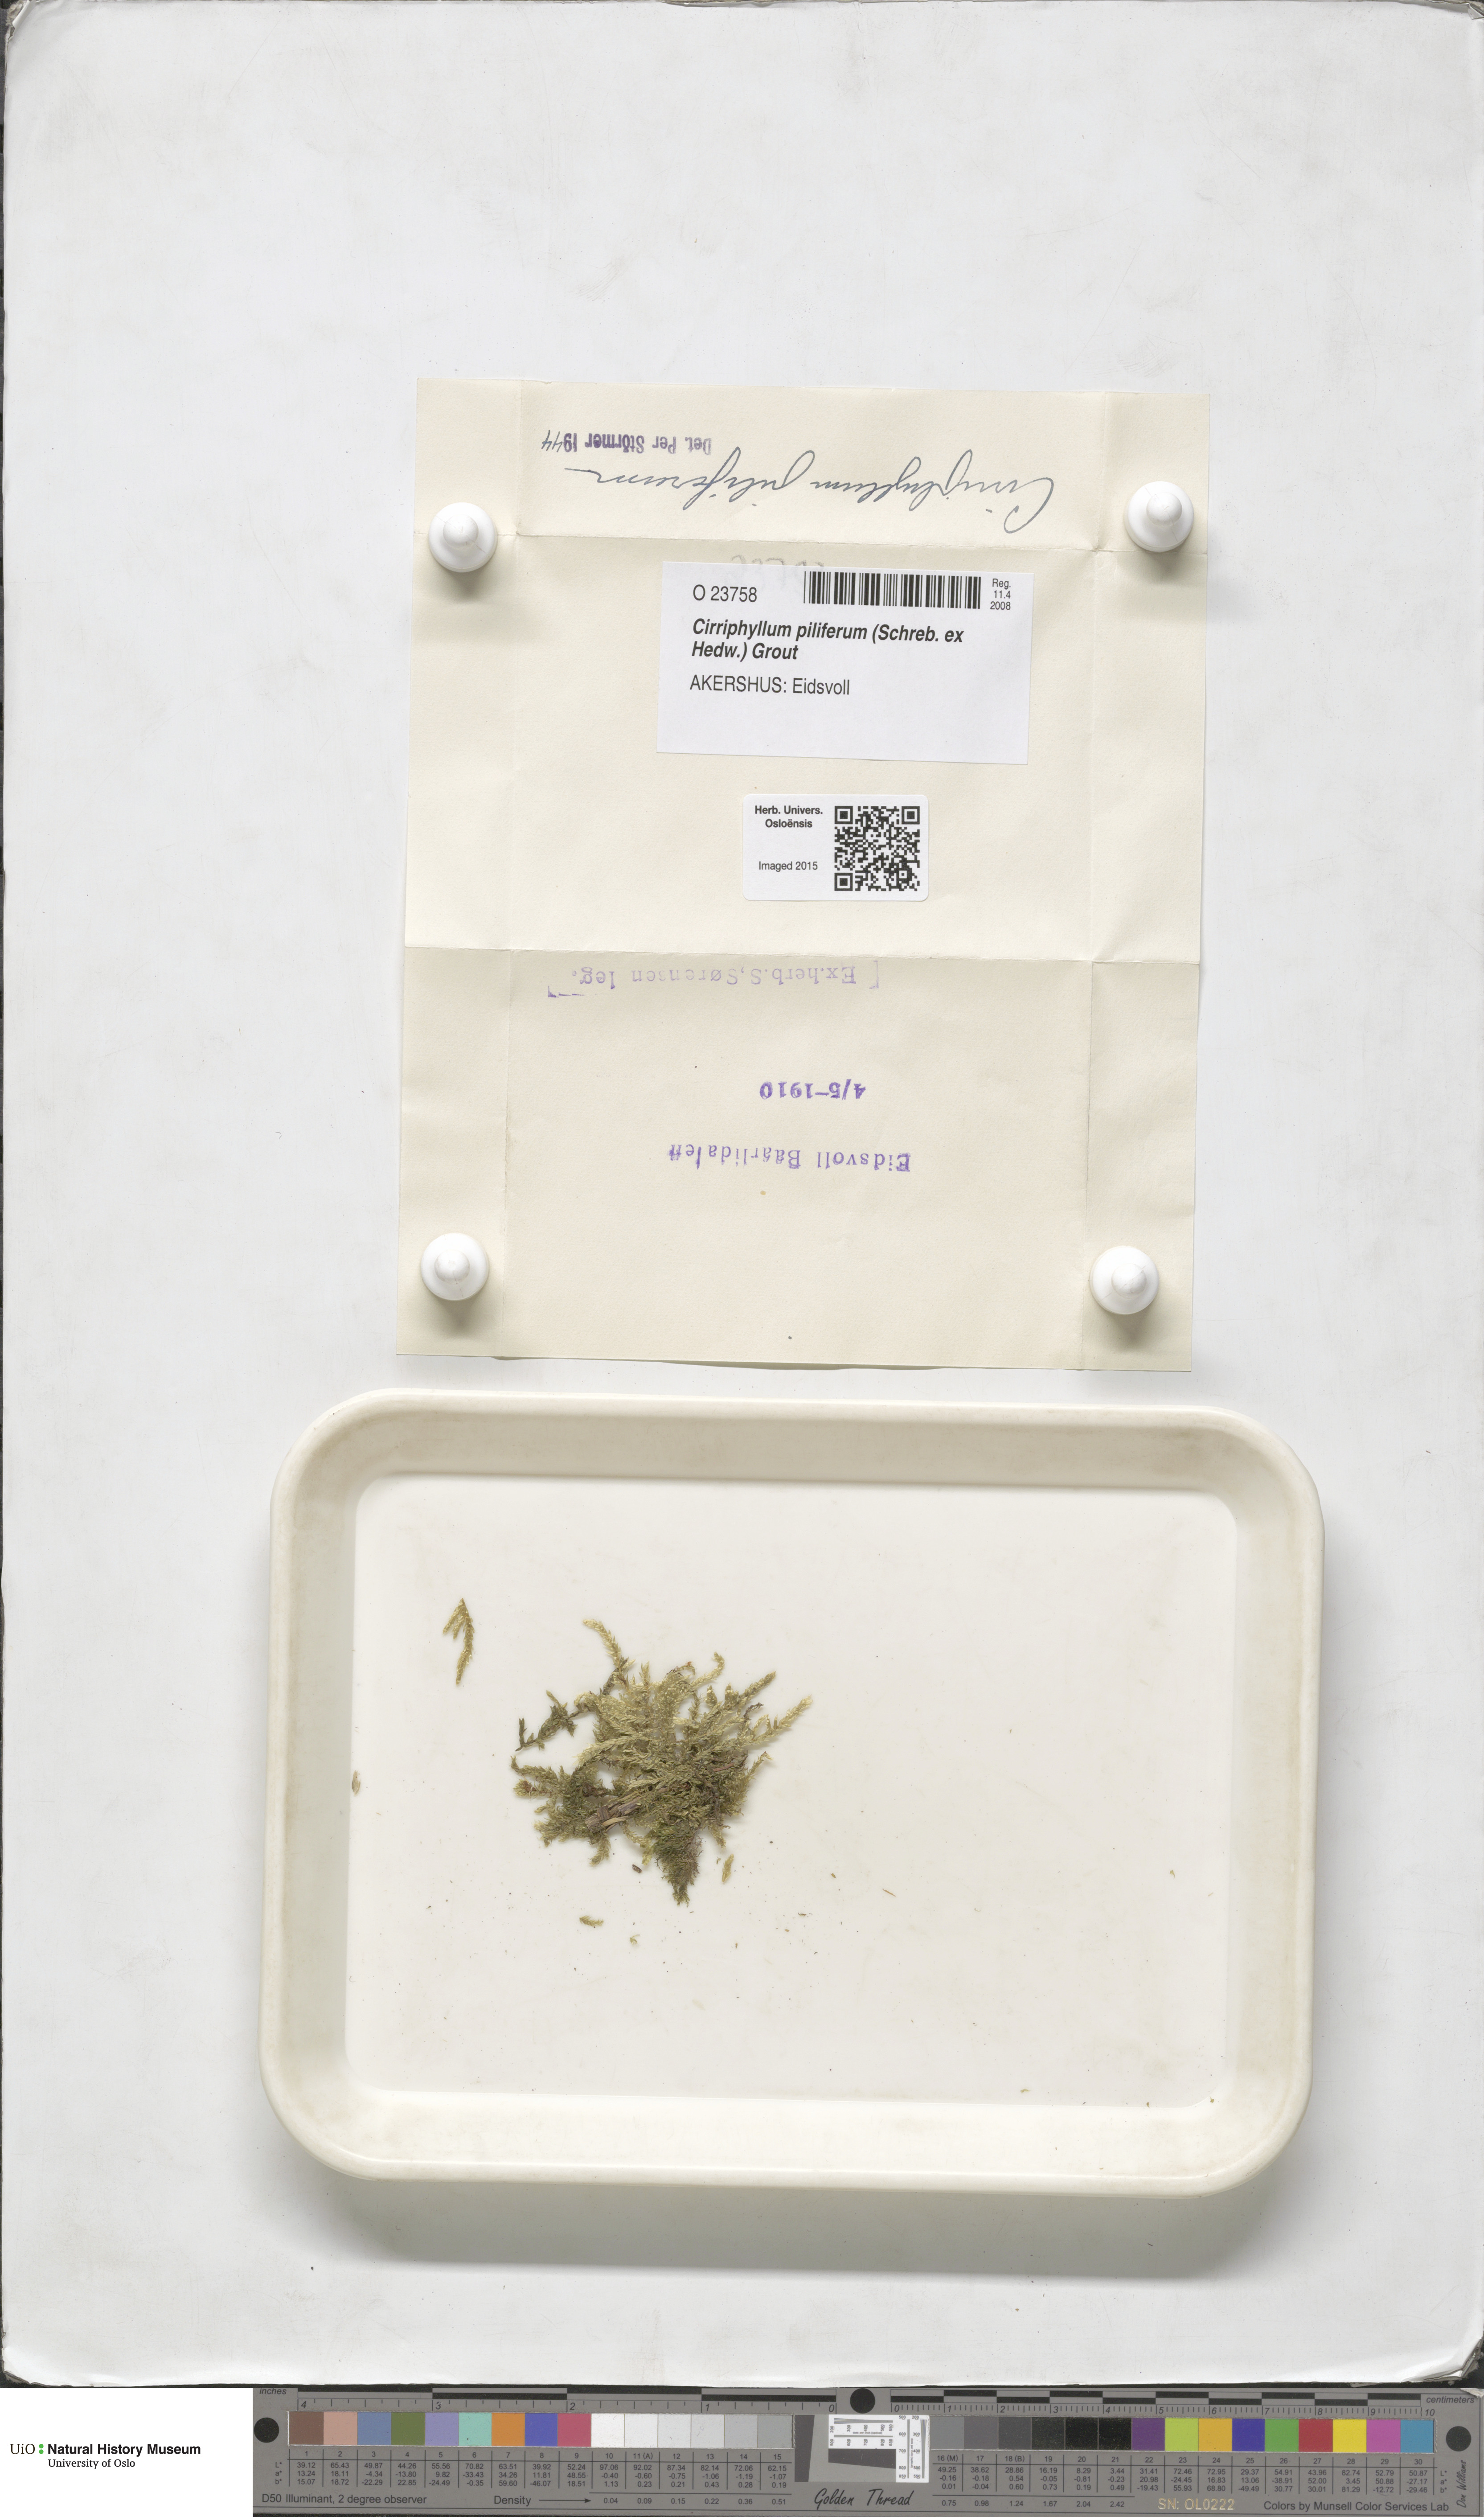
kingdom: Plantae
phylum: Bryophyta
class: Bryopsida
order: Hypnales
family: Brachytheciaceae
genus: Cirriphyllum
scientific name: Cirriphyllum piliferum
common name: Hair-pointed moss
